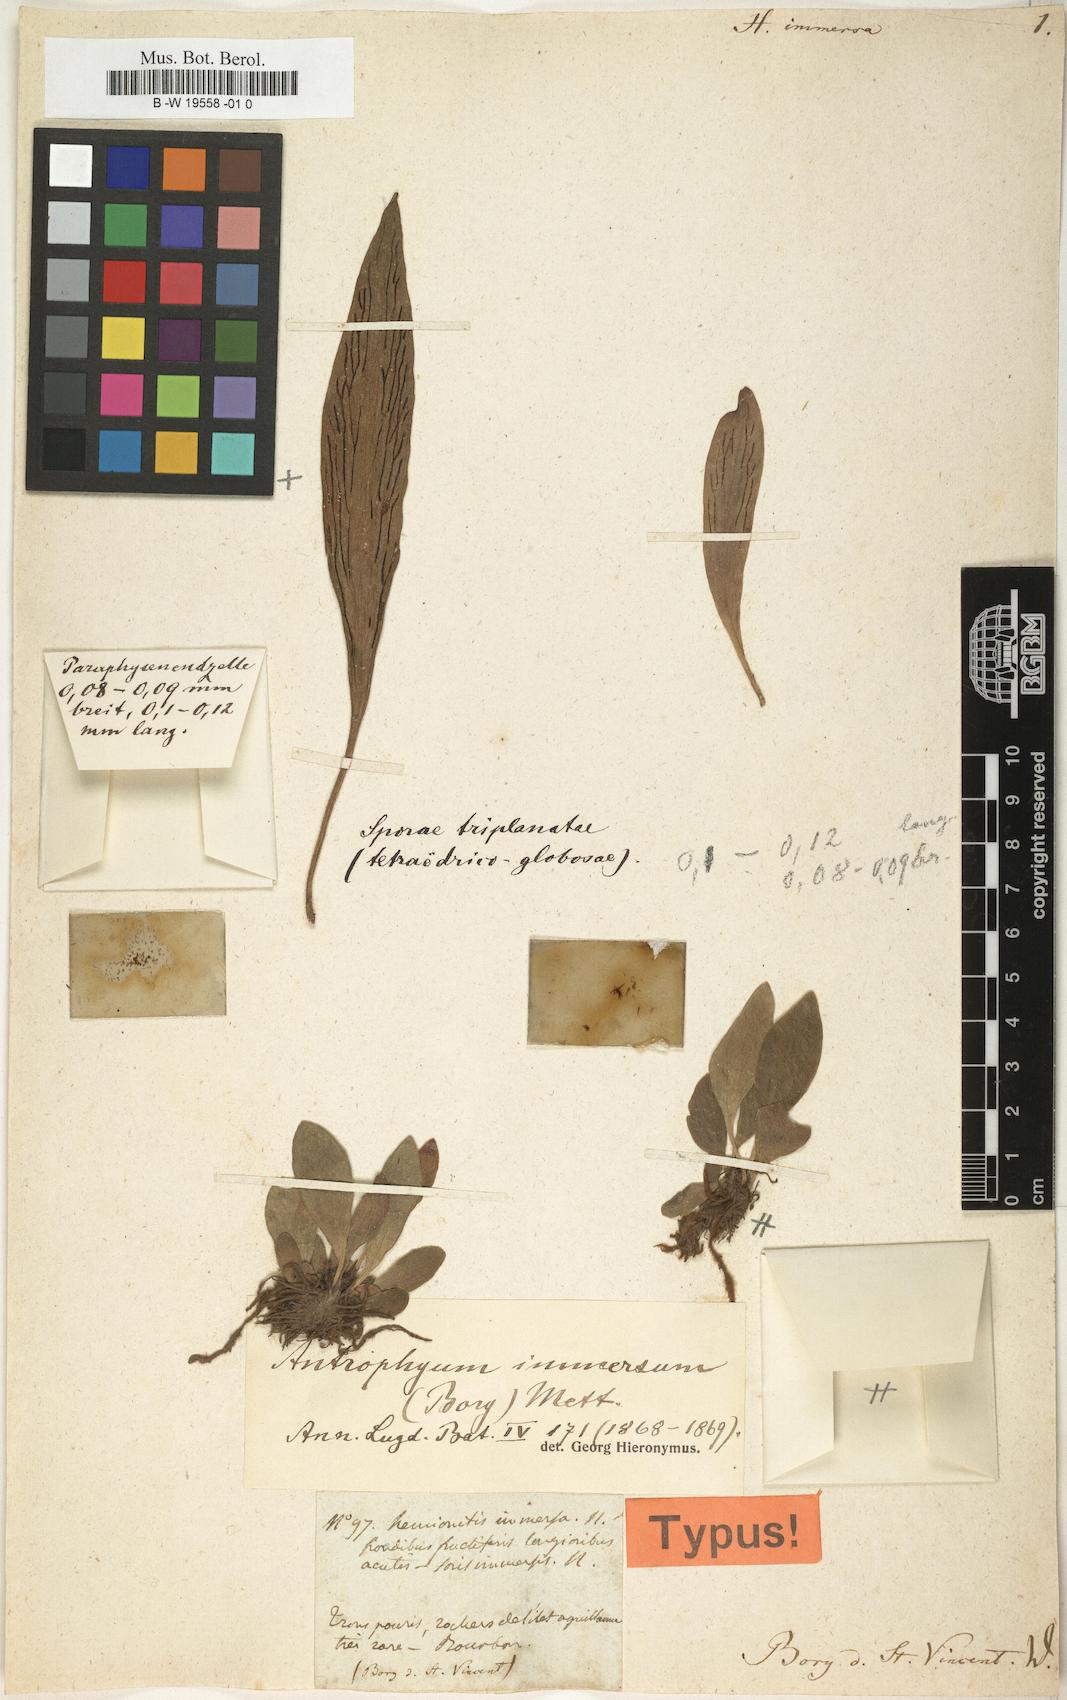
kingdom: Plantae
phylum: Tracheophyta
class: Polypodiopsida
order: Polypodiales
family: Pteridaceae
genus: Antrophyum
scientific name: Antrophyum parvulum
